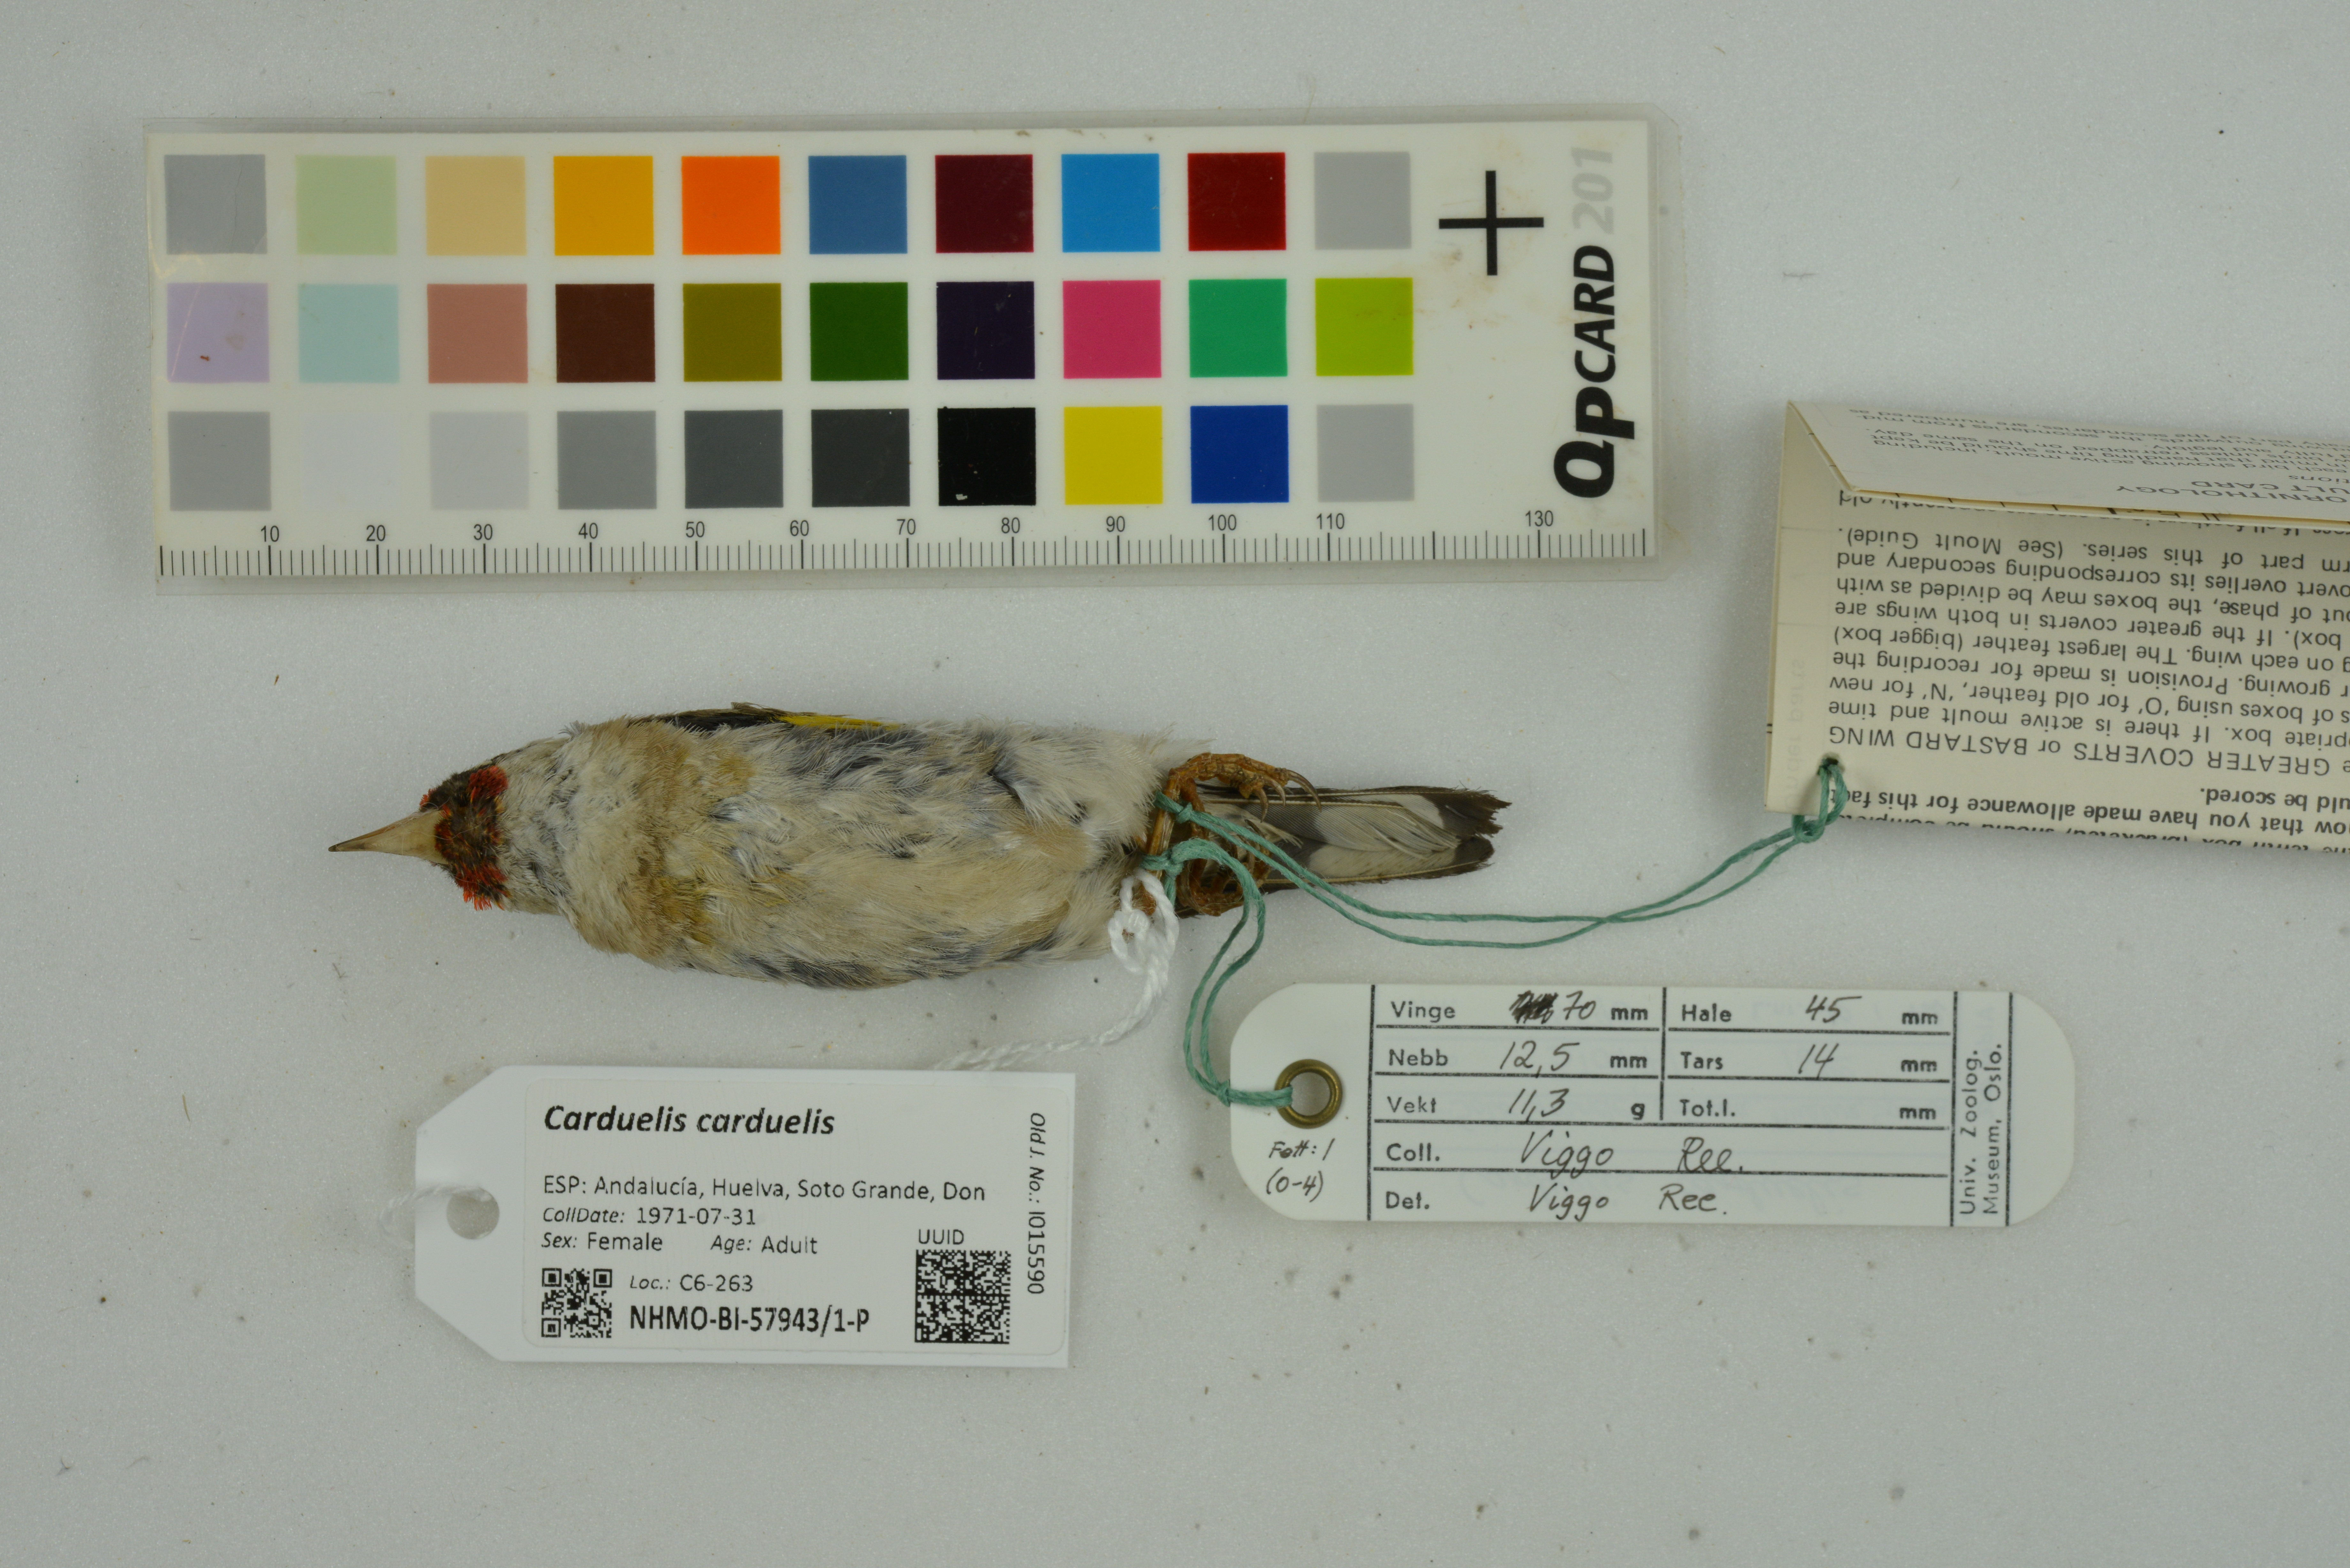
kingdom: Animalia
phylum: Chordata
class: Aves
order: Passeriformes
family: Fringillidae
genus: Carduelis
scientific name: Carduelis carduelis
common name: European goldfinch
